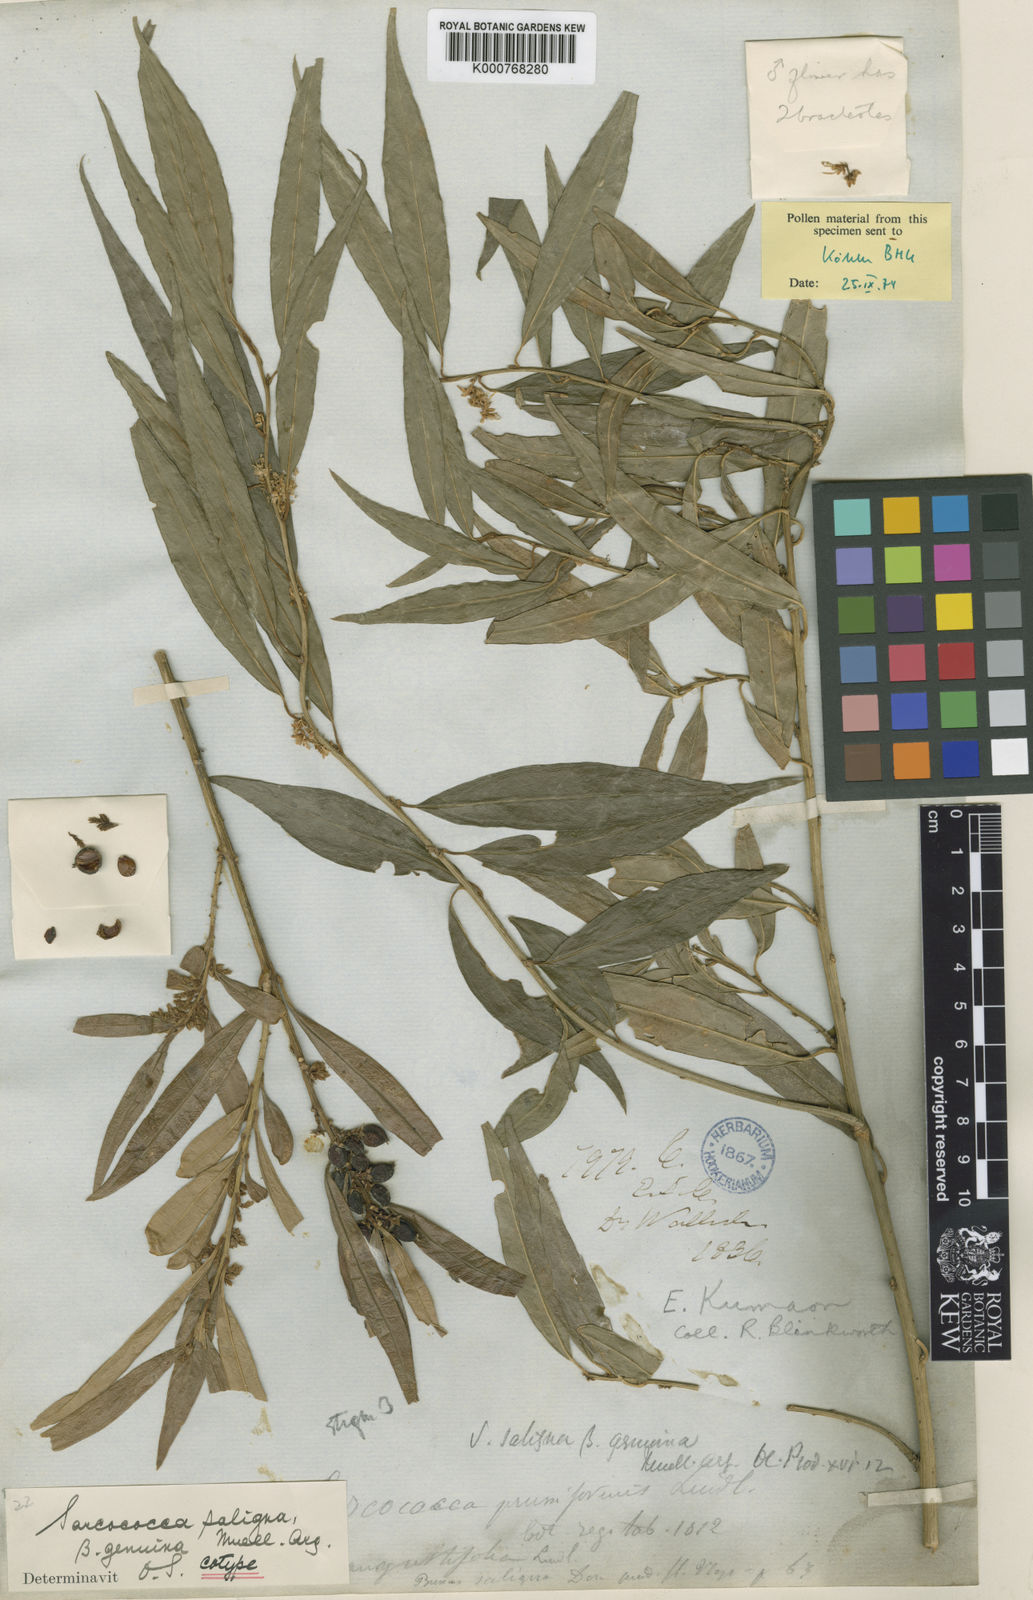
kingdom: Plantae
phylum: Tracheophyta
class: Magnoliopsida
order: Buxales
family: Buxaceae
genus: Sarcococca
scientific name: Sarcococca
